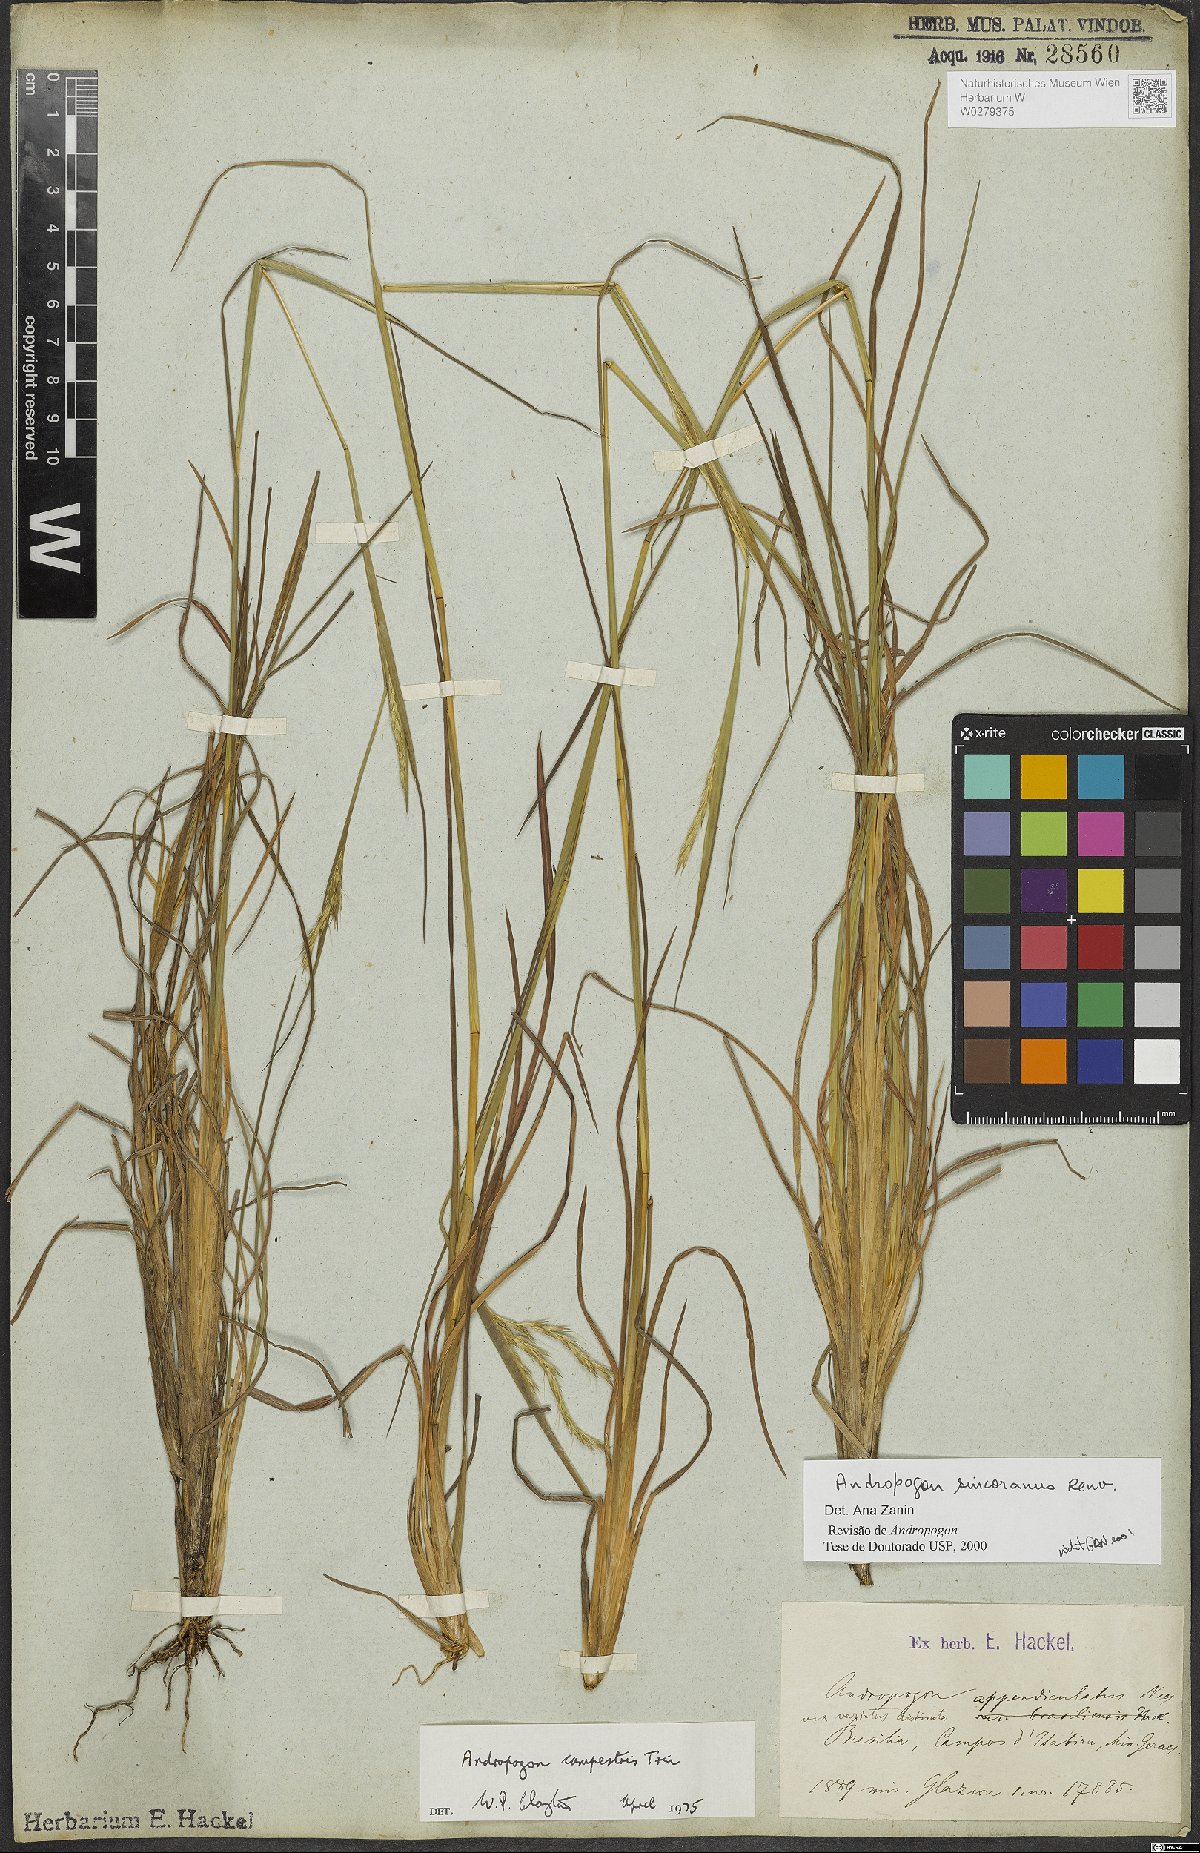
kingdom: Plantae
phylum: Tracheophyta
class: Liliopsida
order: Poales
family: Poaceae
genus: Andropogon
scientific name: Andropogon ingratus
